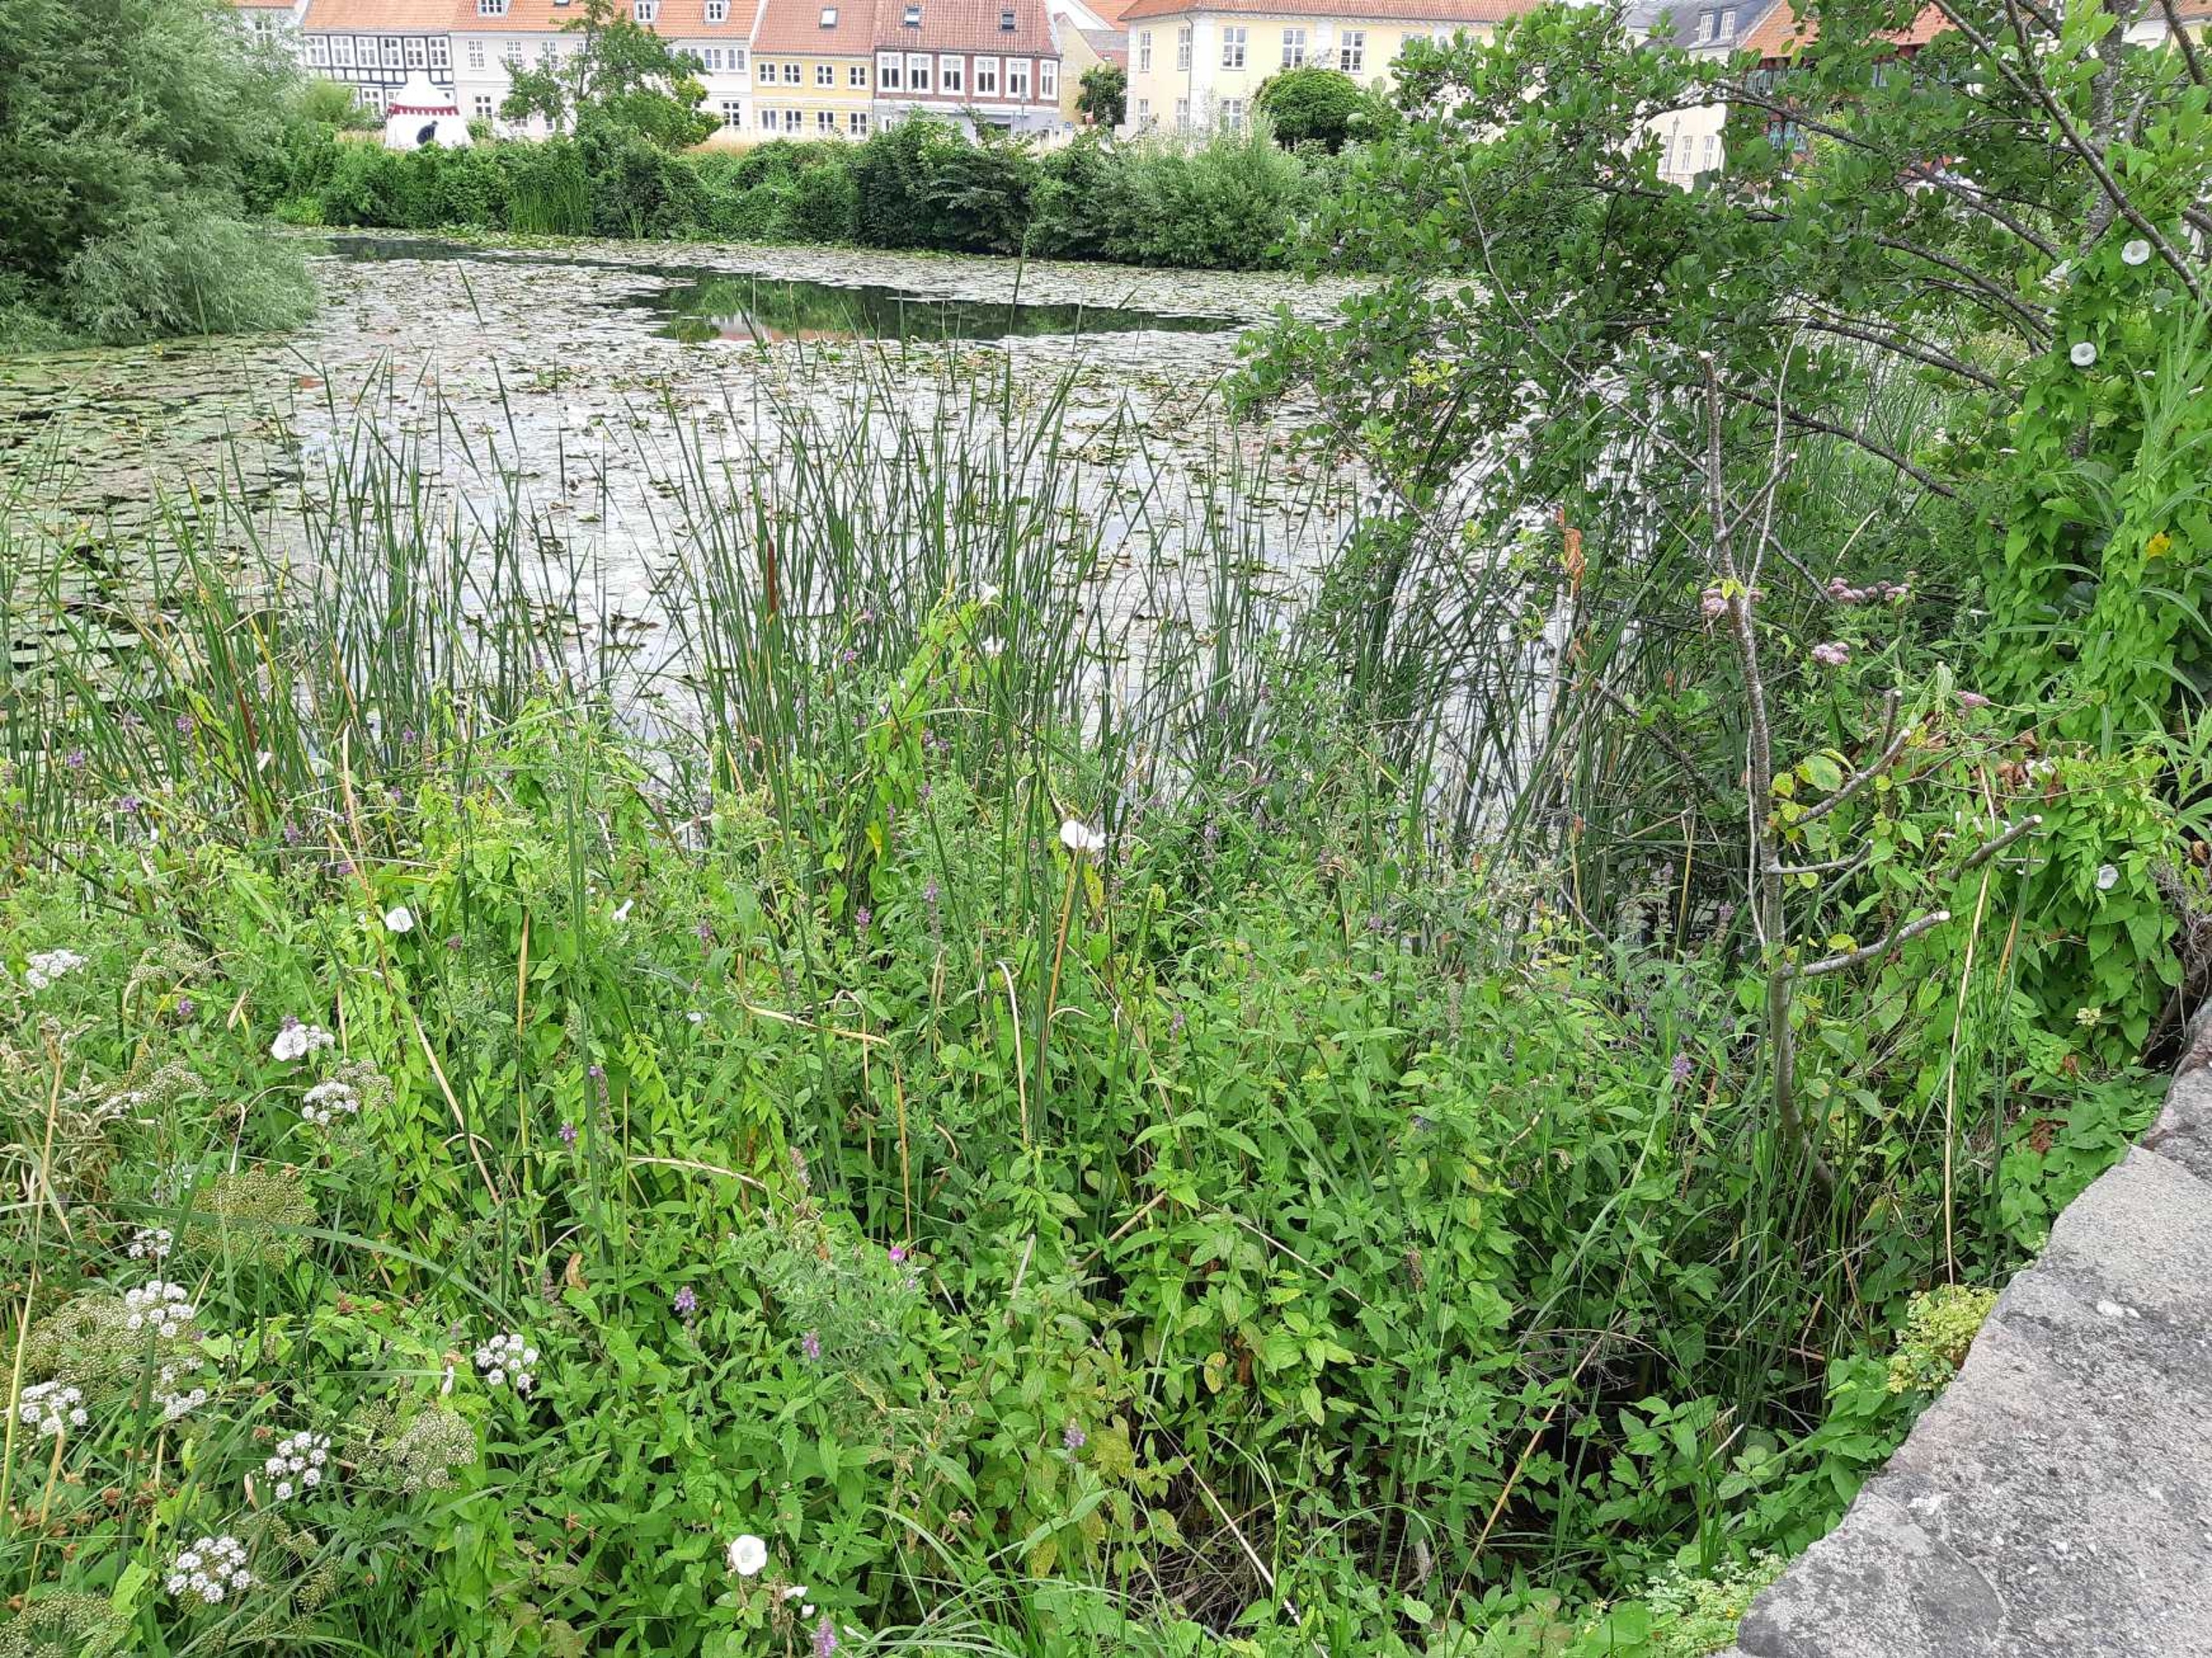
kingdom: Plantae
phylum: Tracheophyta
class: Magnoliopsida
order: Fagales
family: Betulaceae
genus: Alnus
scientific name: Alnus glutinosa
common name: Rød-el
